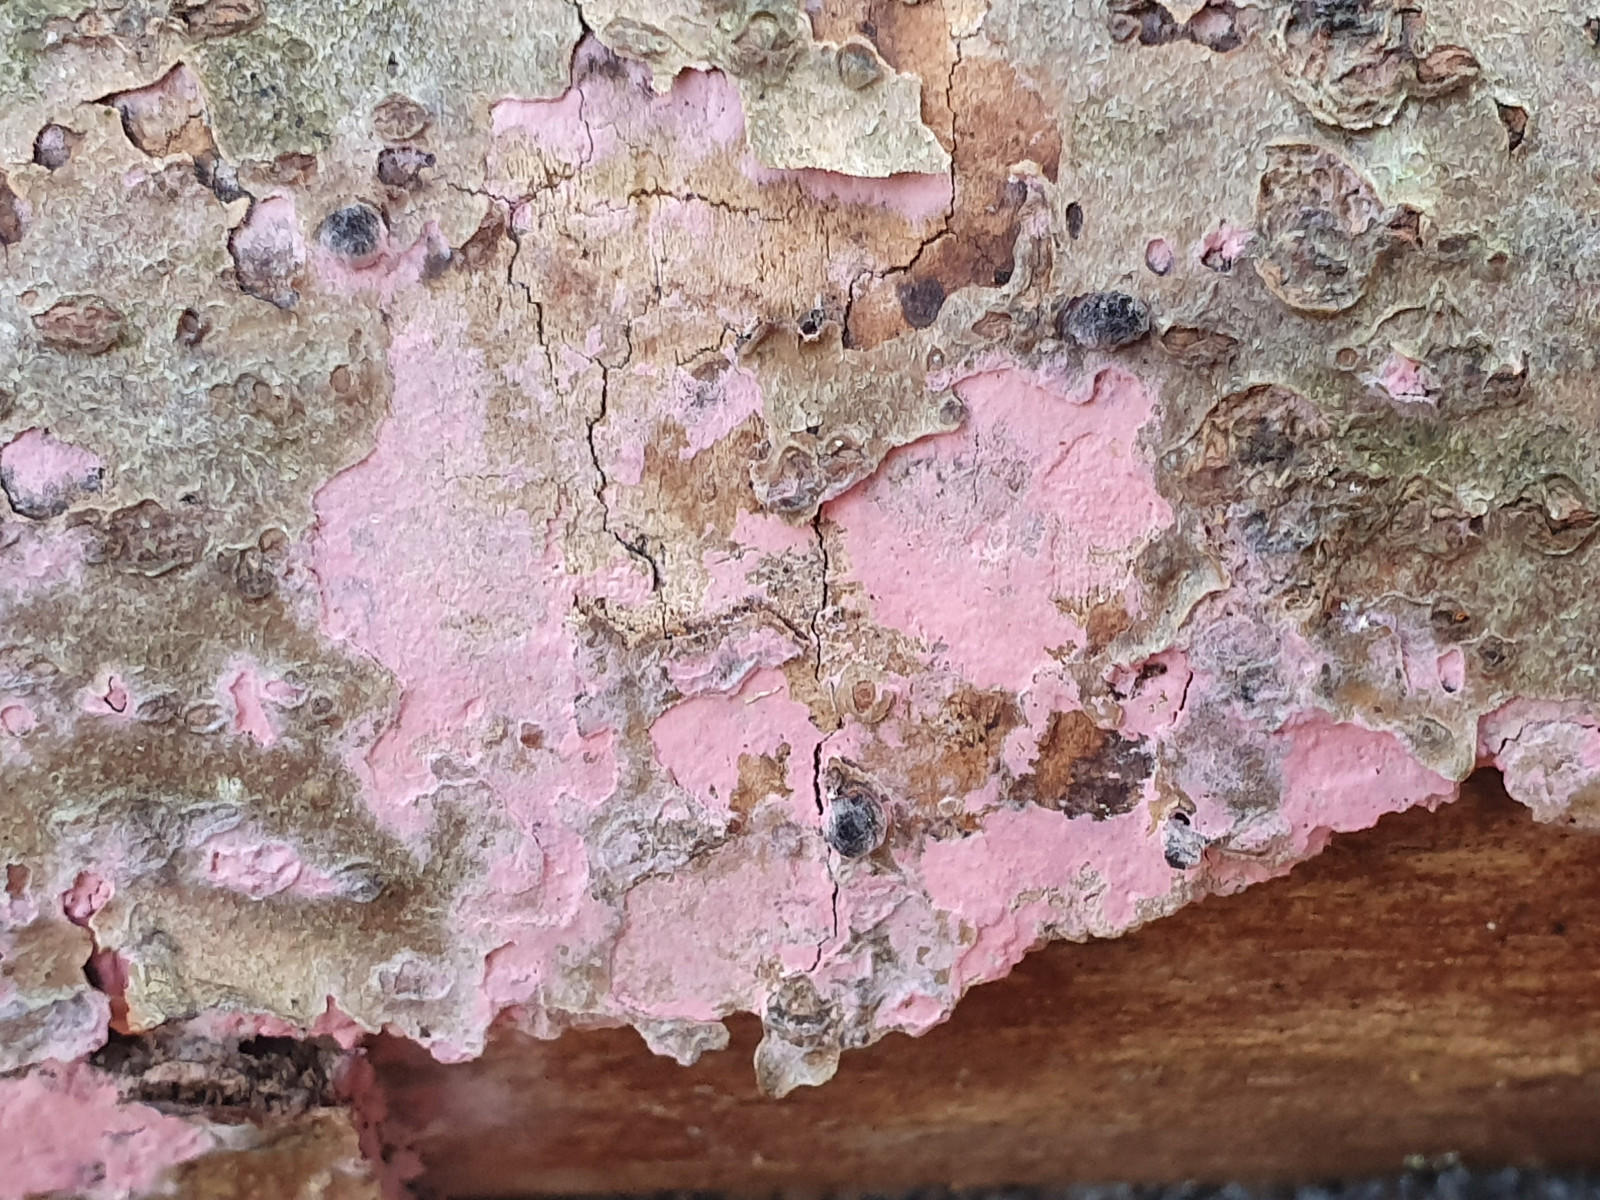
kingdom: Fungi
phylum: Basidiomycota
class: Agaricomycetes
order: Cantharellales
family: Tulasnellaceae
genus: Tulasnella
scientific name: Tulasnella violea
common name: violet ballonhinde
